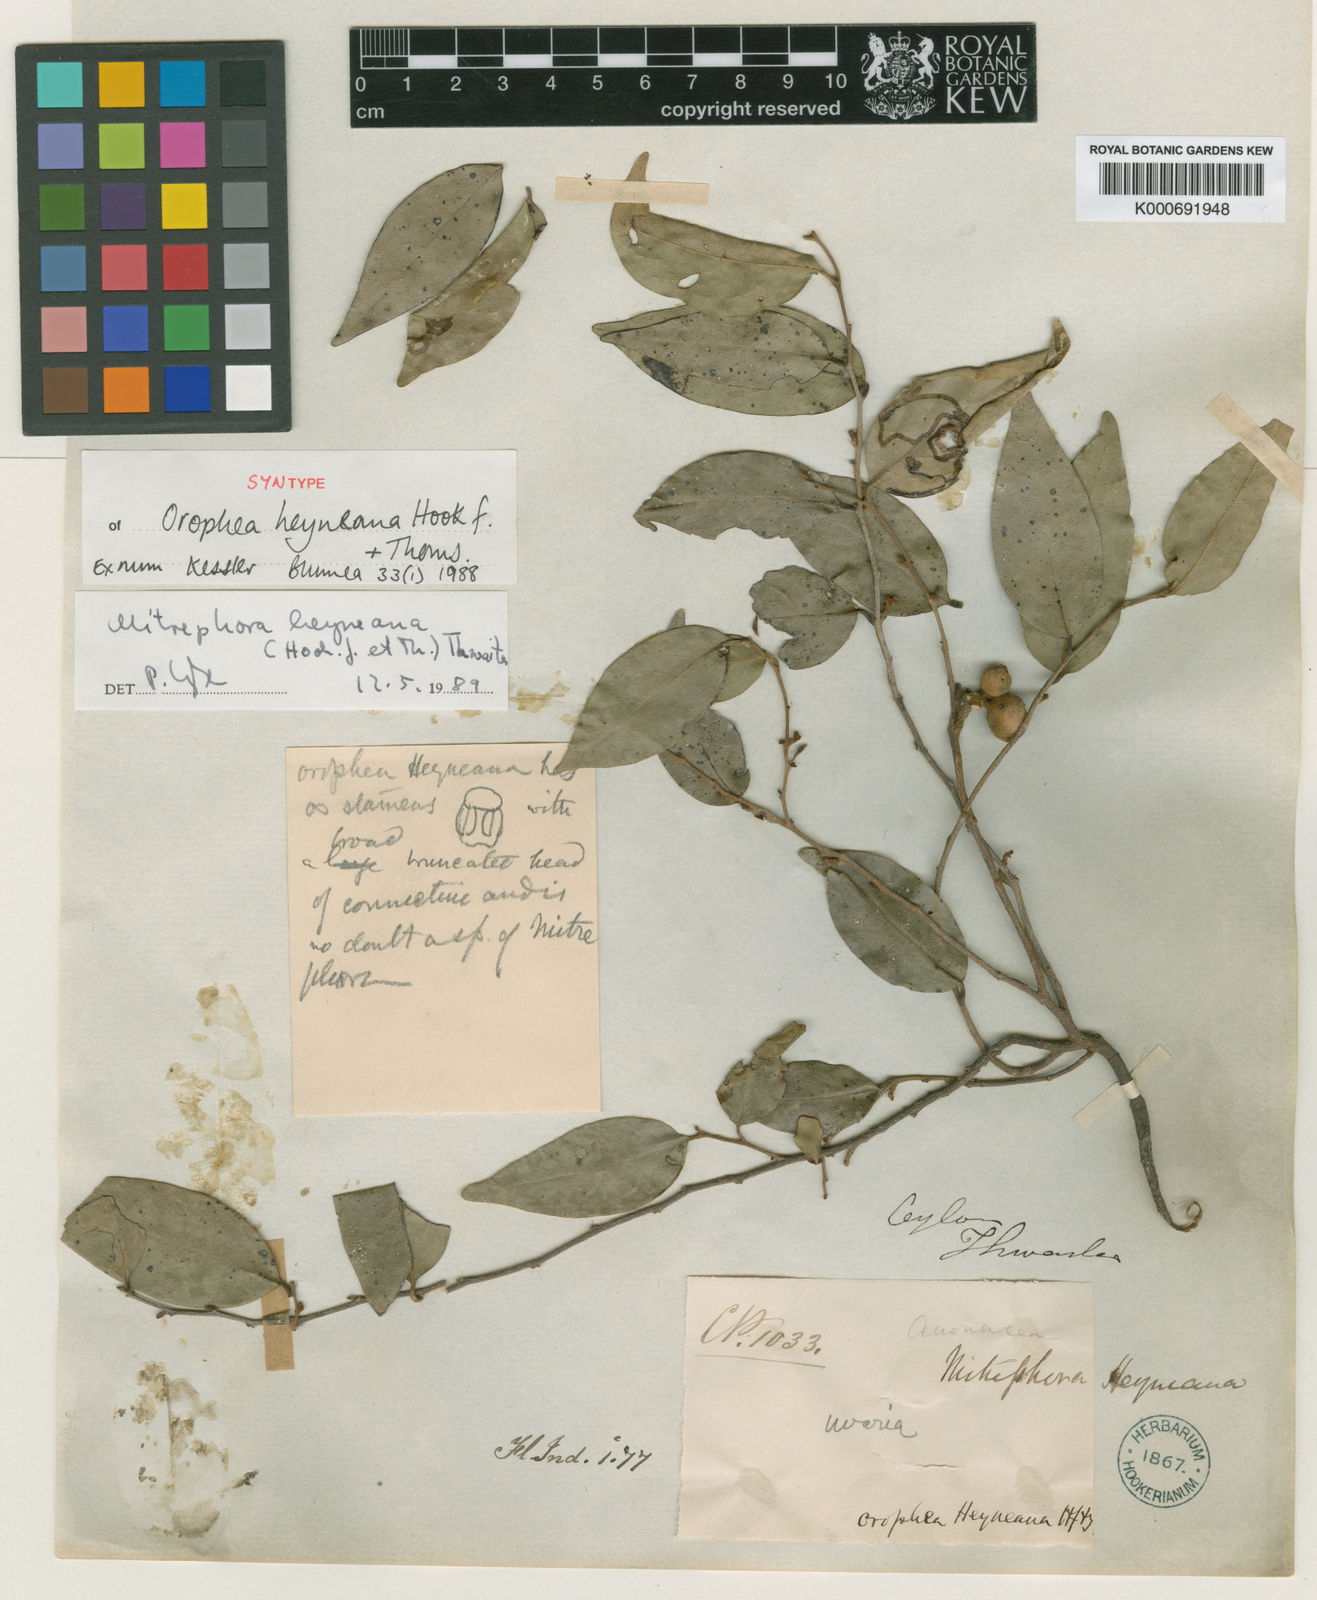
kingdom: Plantae
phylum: Tracheophyta
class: Magnoliopsida
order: Magnoliales
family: Annonaceae
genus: Mitrephora
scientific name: Mitrephora heyneana
